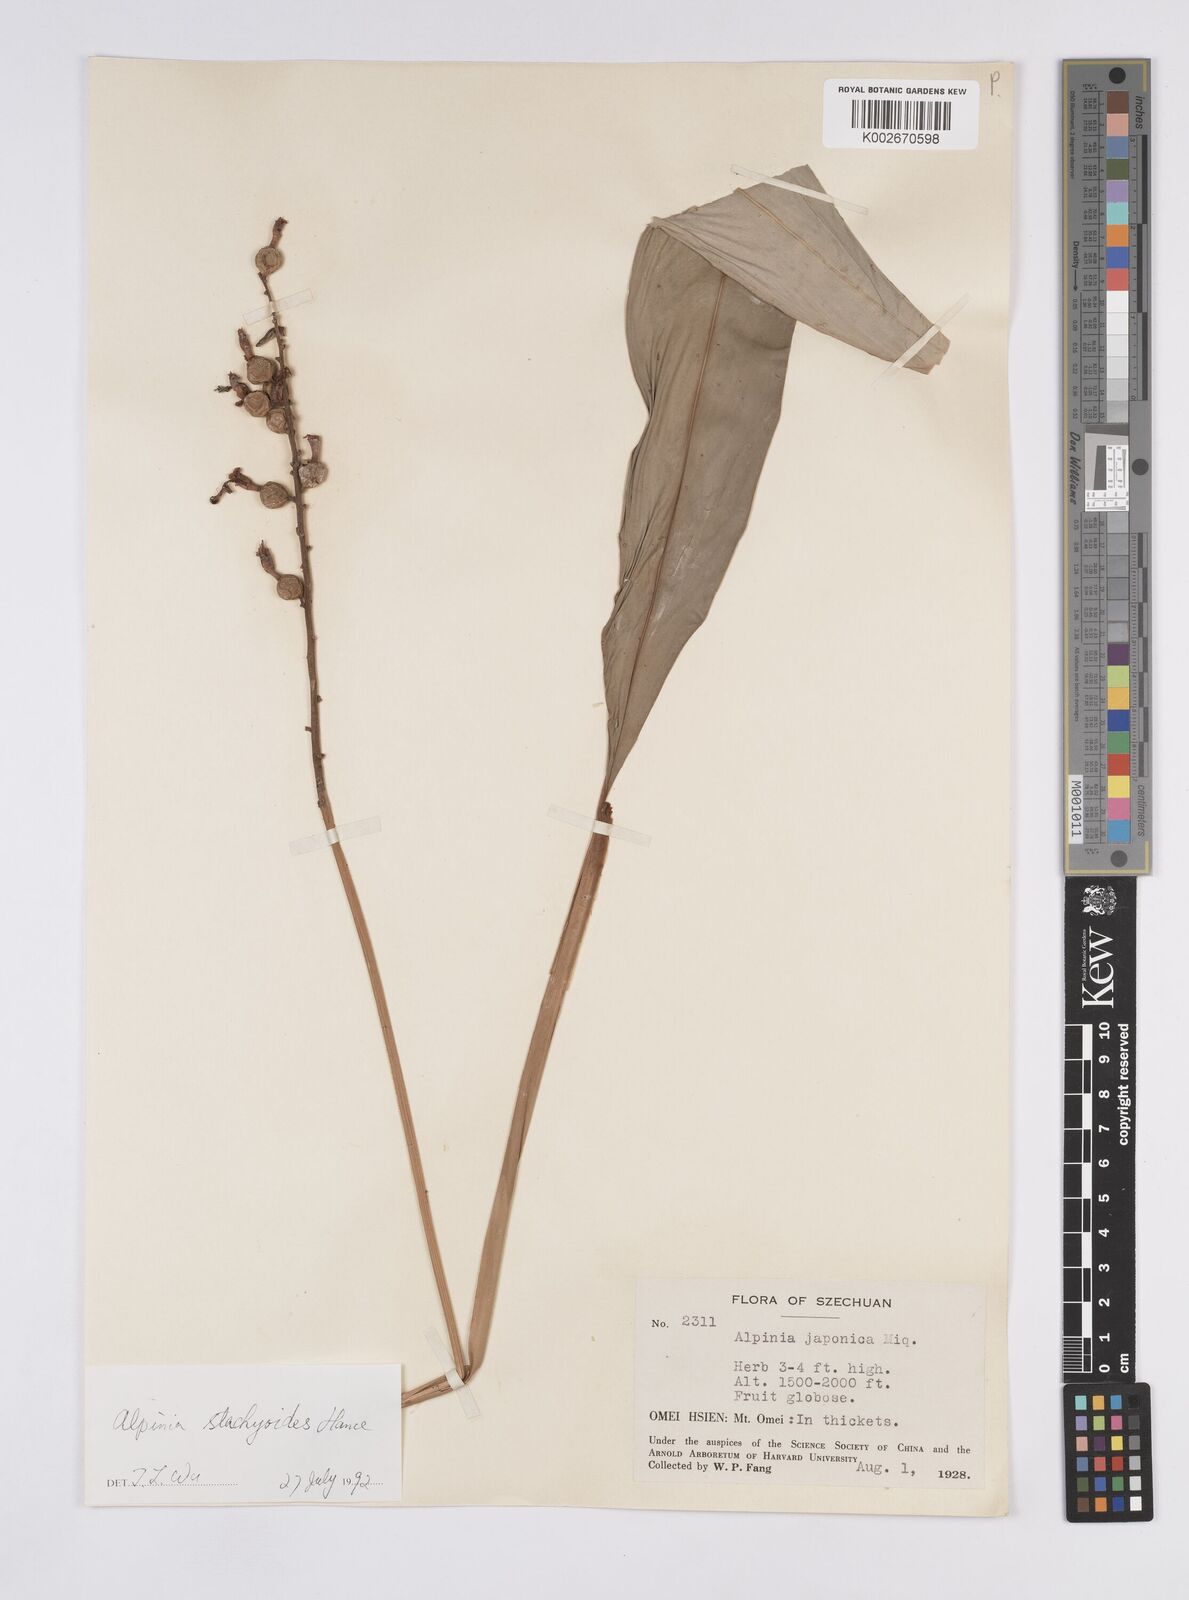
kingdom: Plantae
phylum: Tracheophyta
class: Liliopsida
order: Zingiberales
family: Zingiberaceae
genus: Alpinia
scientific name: Alpinia stachyodes
